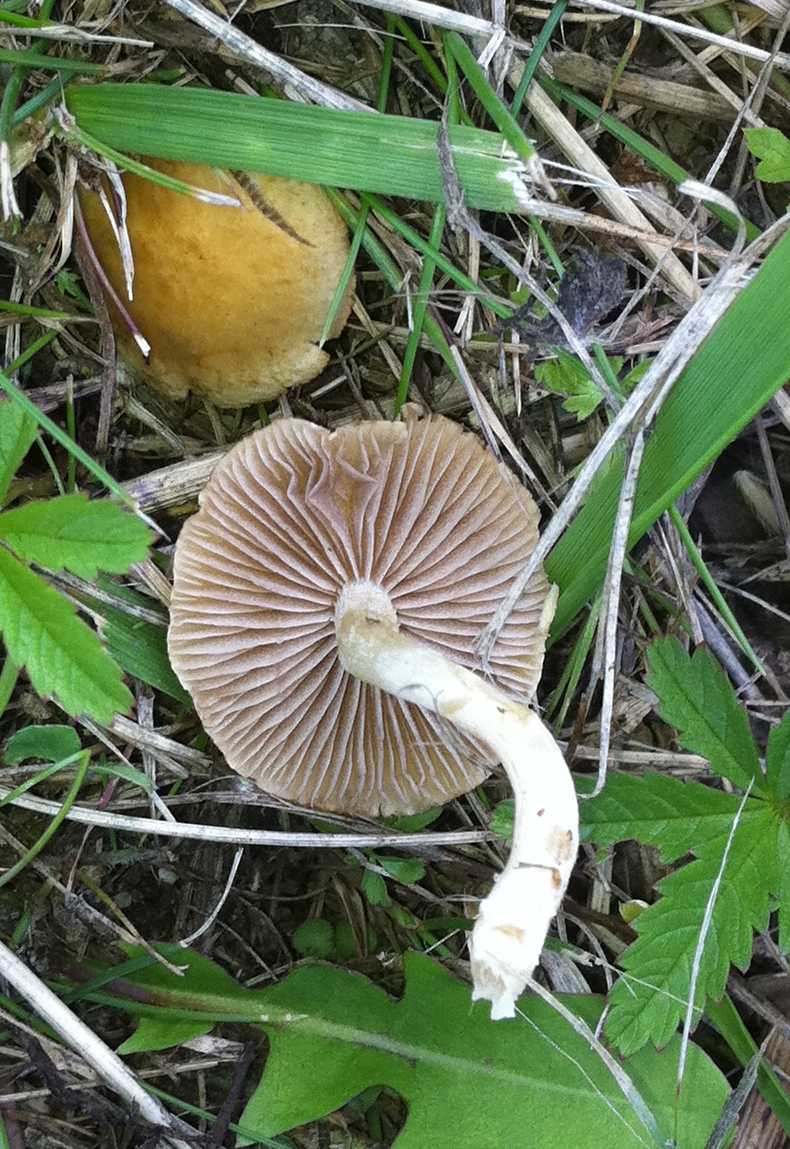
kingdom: Fungi
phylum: Basidiomycota
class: Agaricomycetes
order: Agaricales
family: Strophariaceae
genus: Agrocybe
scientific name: Agrocybe pediades
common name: almindelig agerhat
